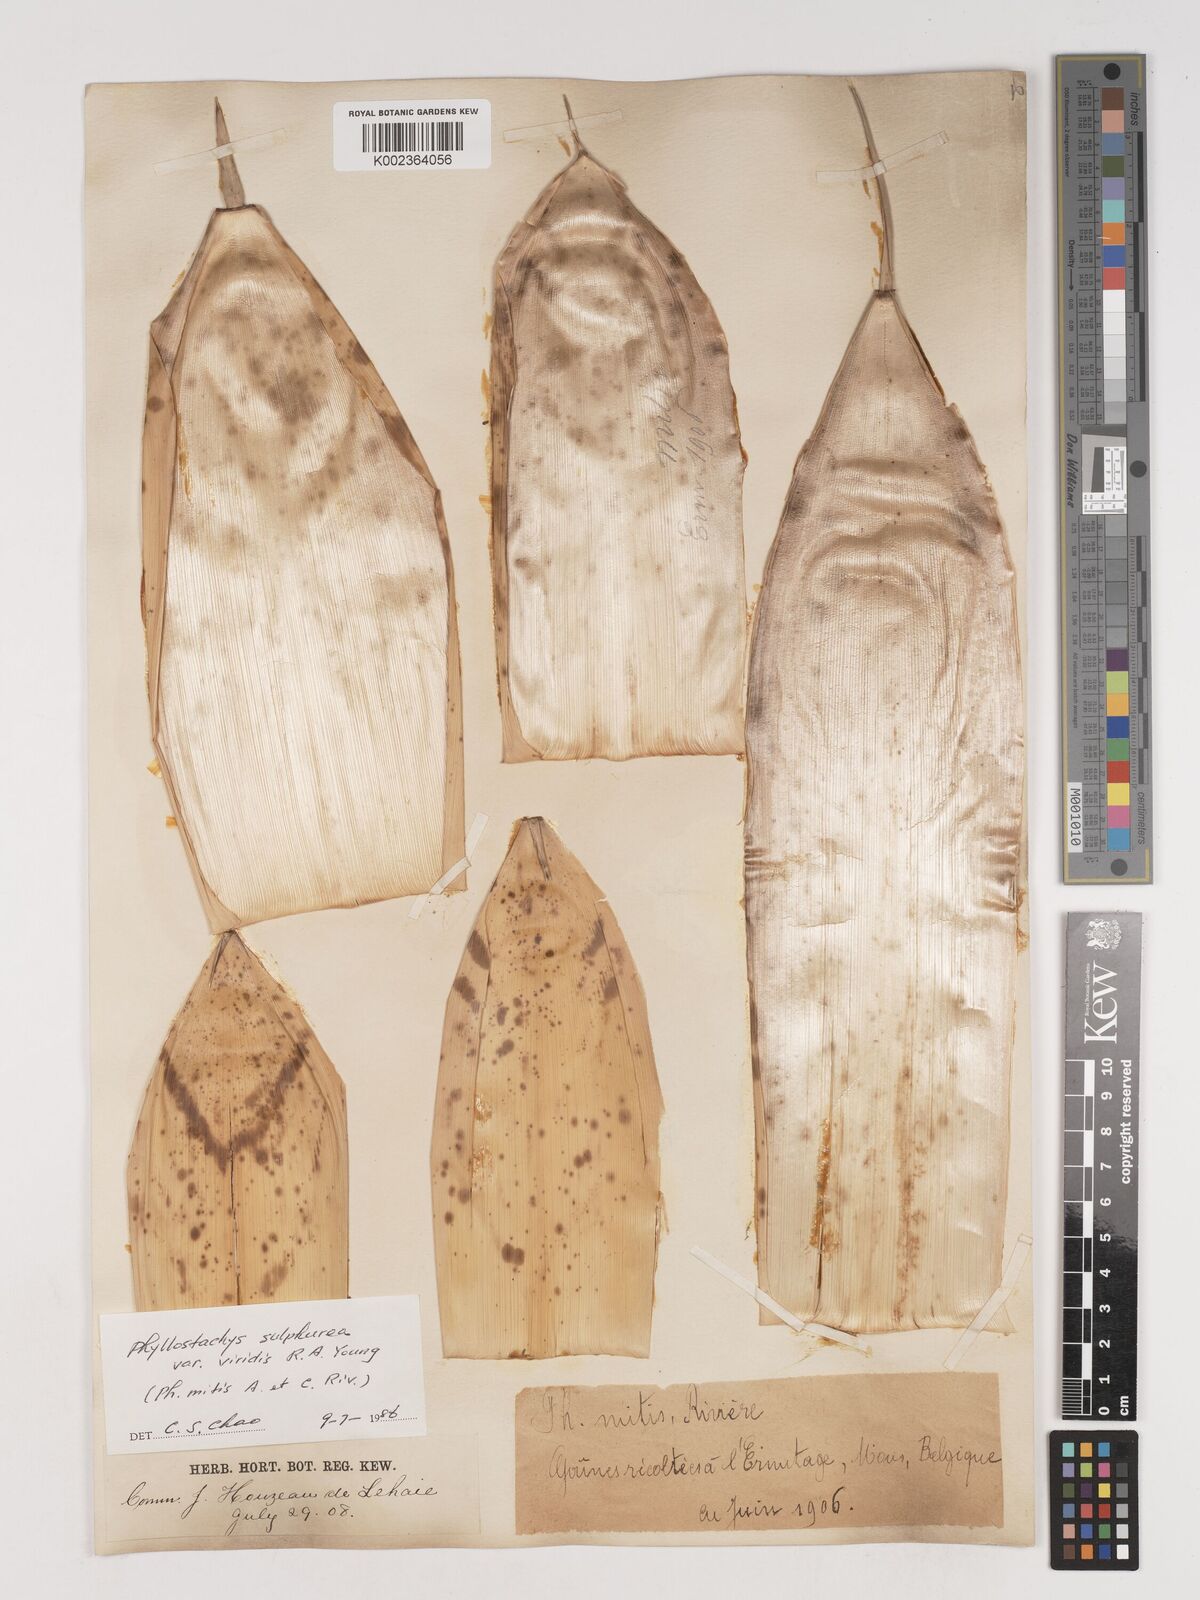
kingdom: Plantae
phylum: Tracheophyta
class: Liliopsida
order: Poales
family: Poaceae
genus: Phyllostachys
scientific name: Phyllostachys sulphurea
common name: Sulphur bamboo
